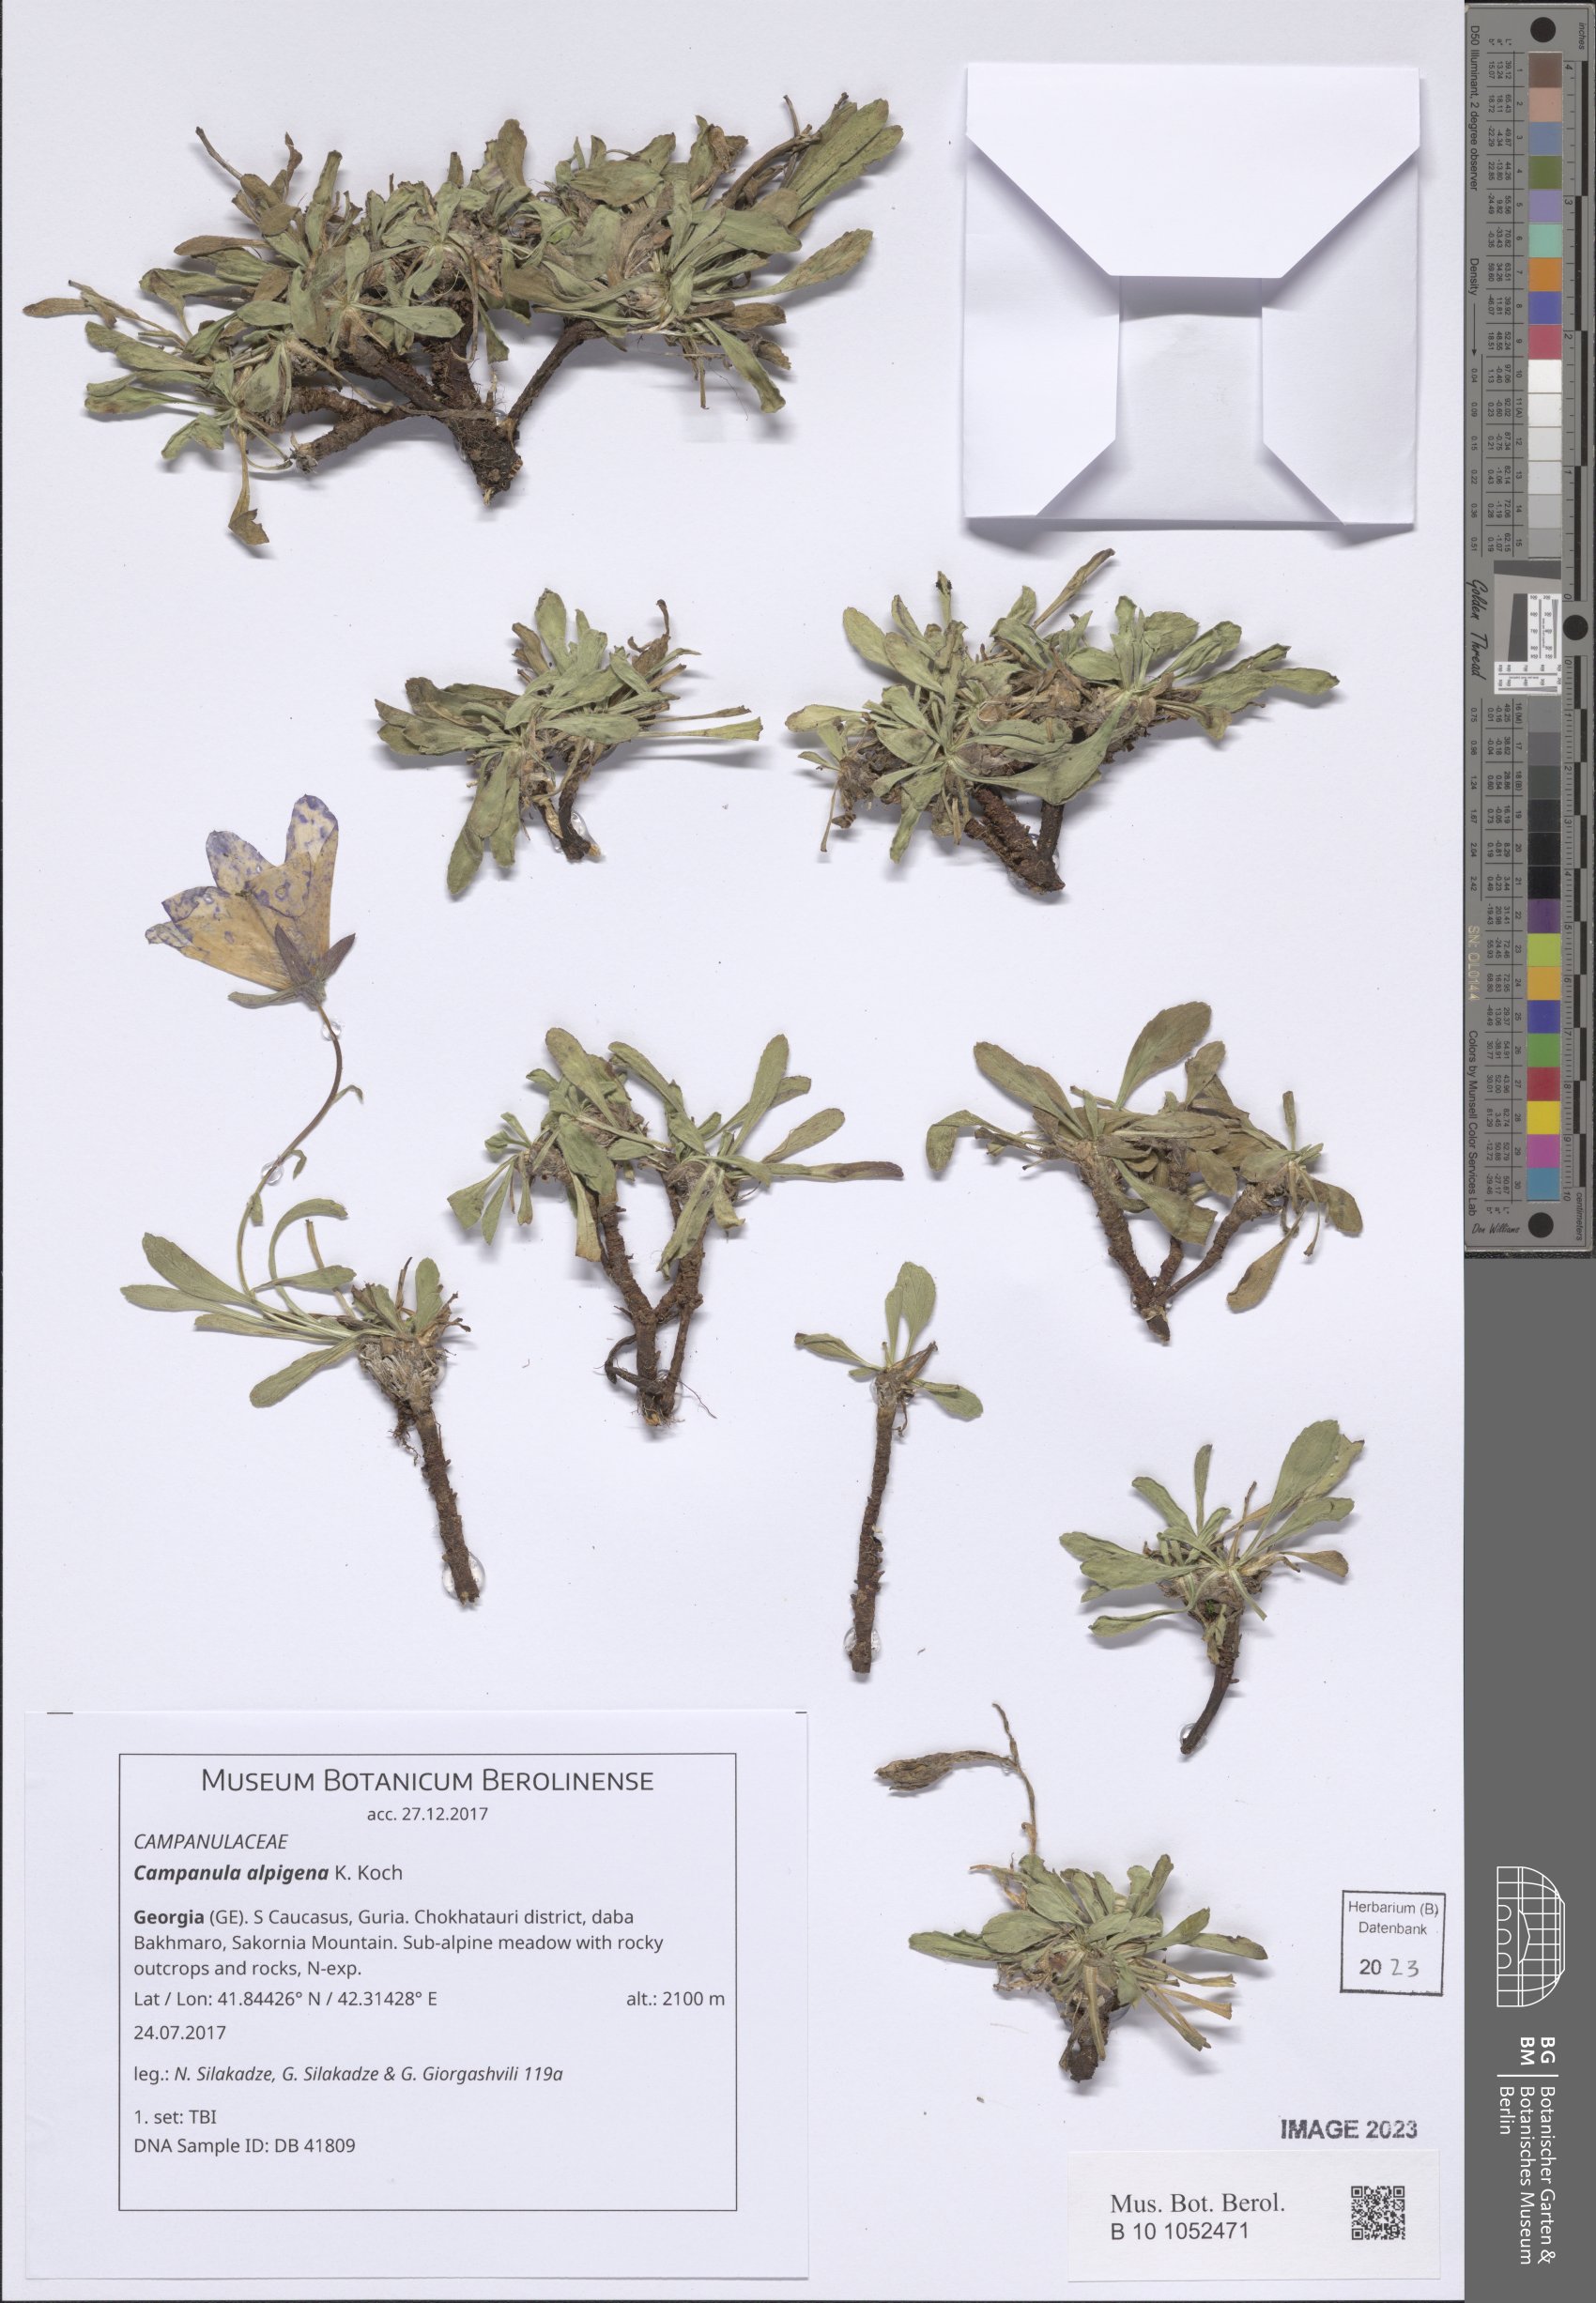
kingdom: Plantae
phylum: Tracheophyta
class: Magnoliopsida
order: Asterales
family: Campanulaceae
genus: Campanula
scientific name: Campanula saxifraga
